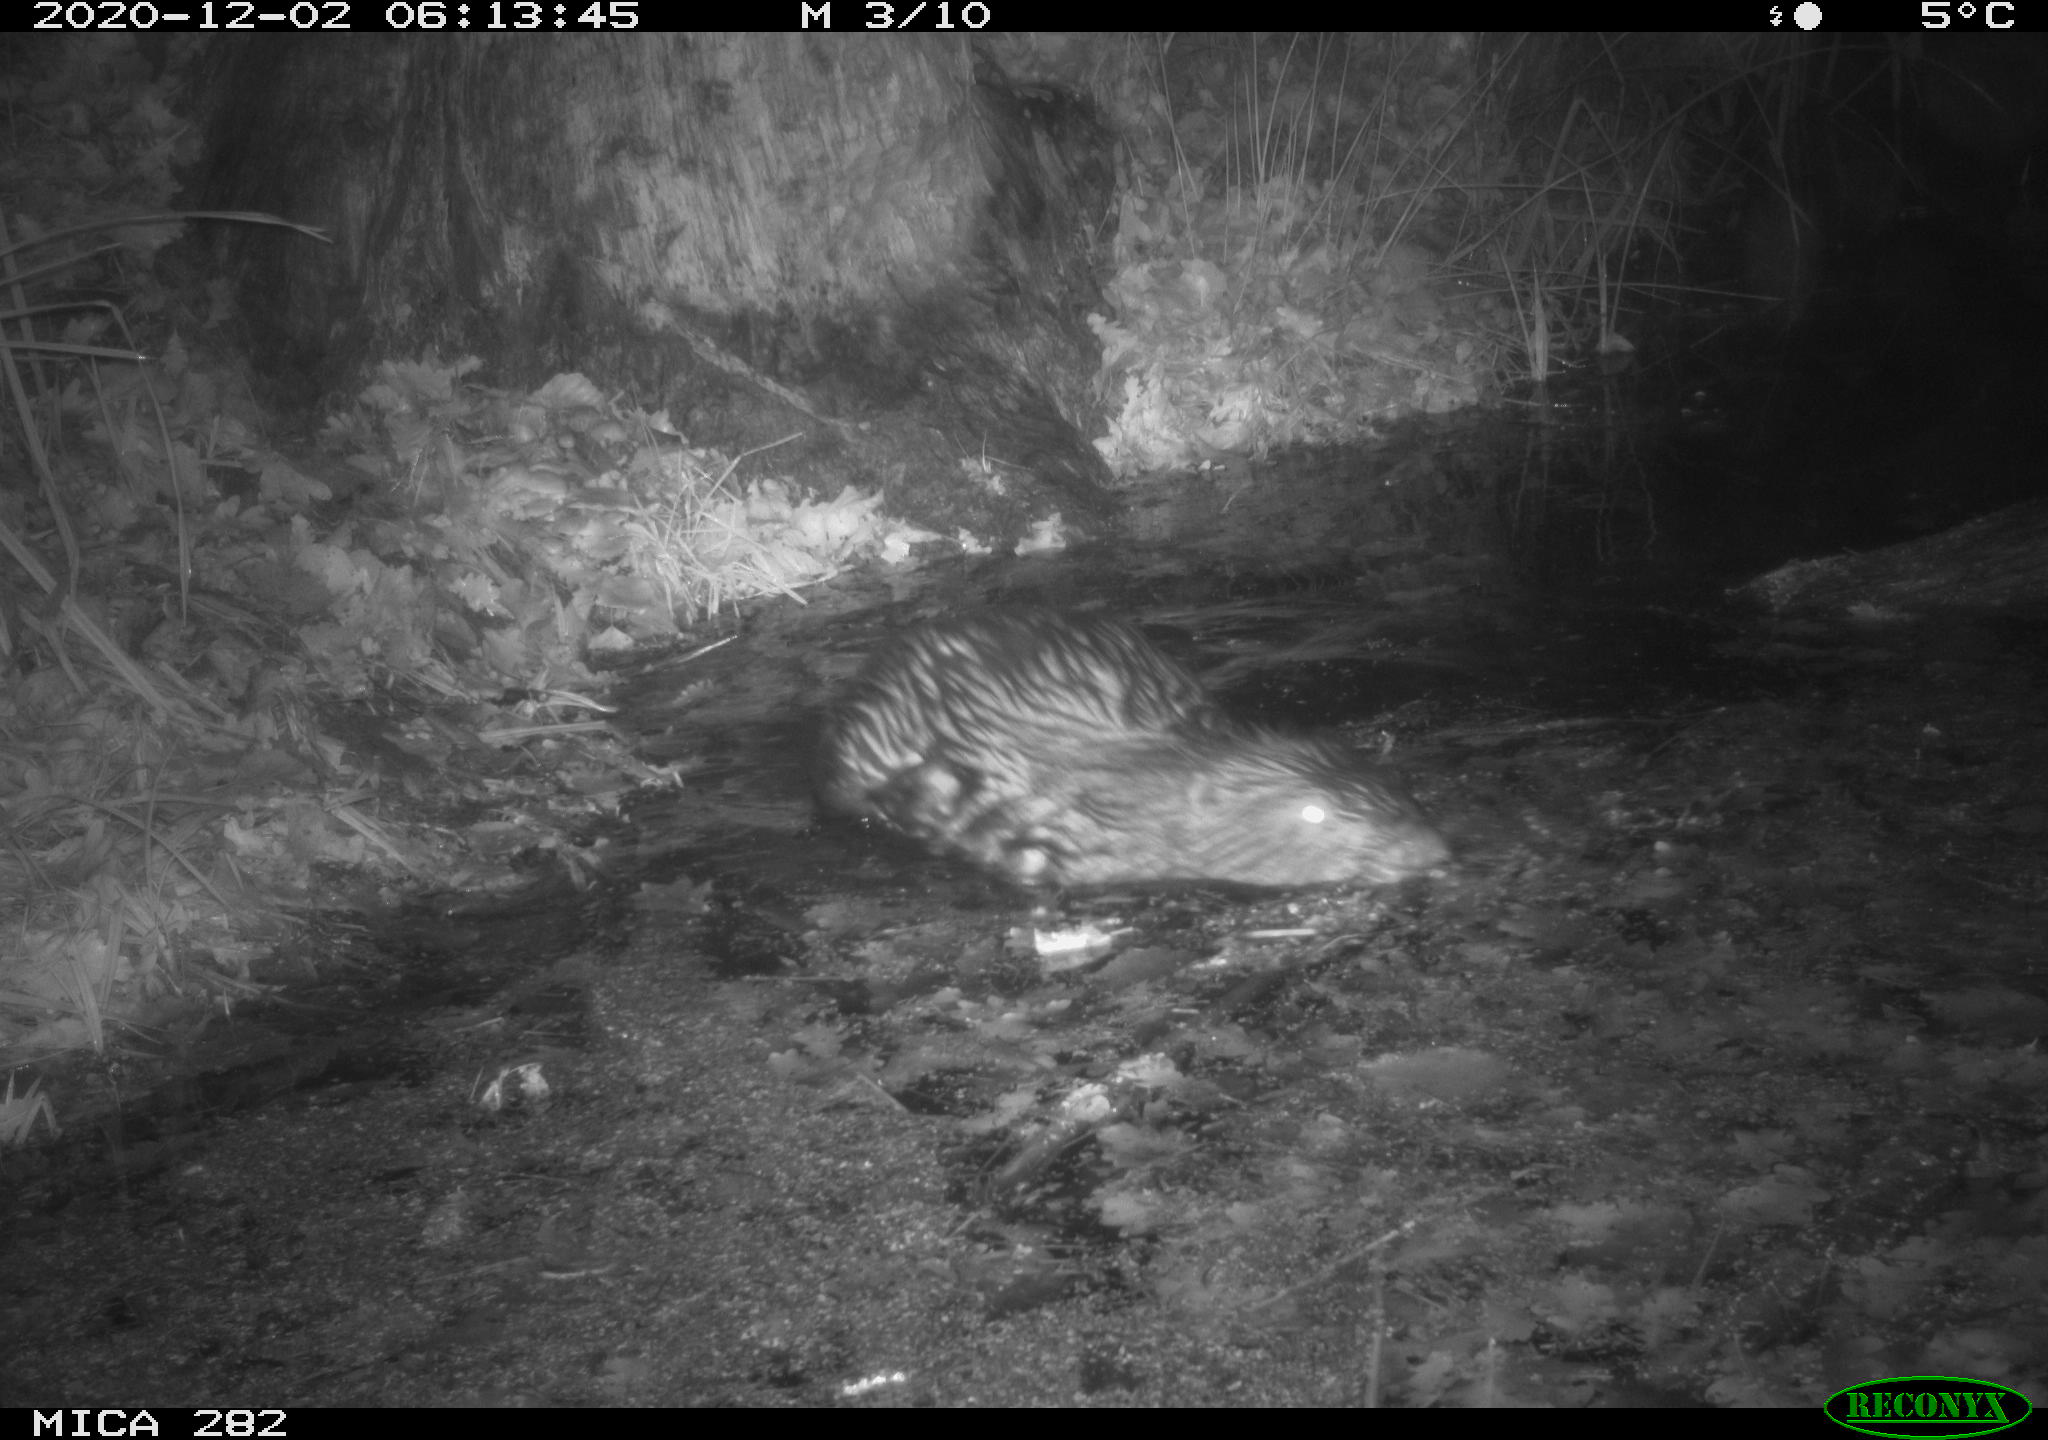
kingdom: Animalia
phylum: Chordata
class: Mammalia
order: Rodentia
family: Castoridae
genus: Castor
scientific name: Castor fiber
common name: Eurasian beaver
